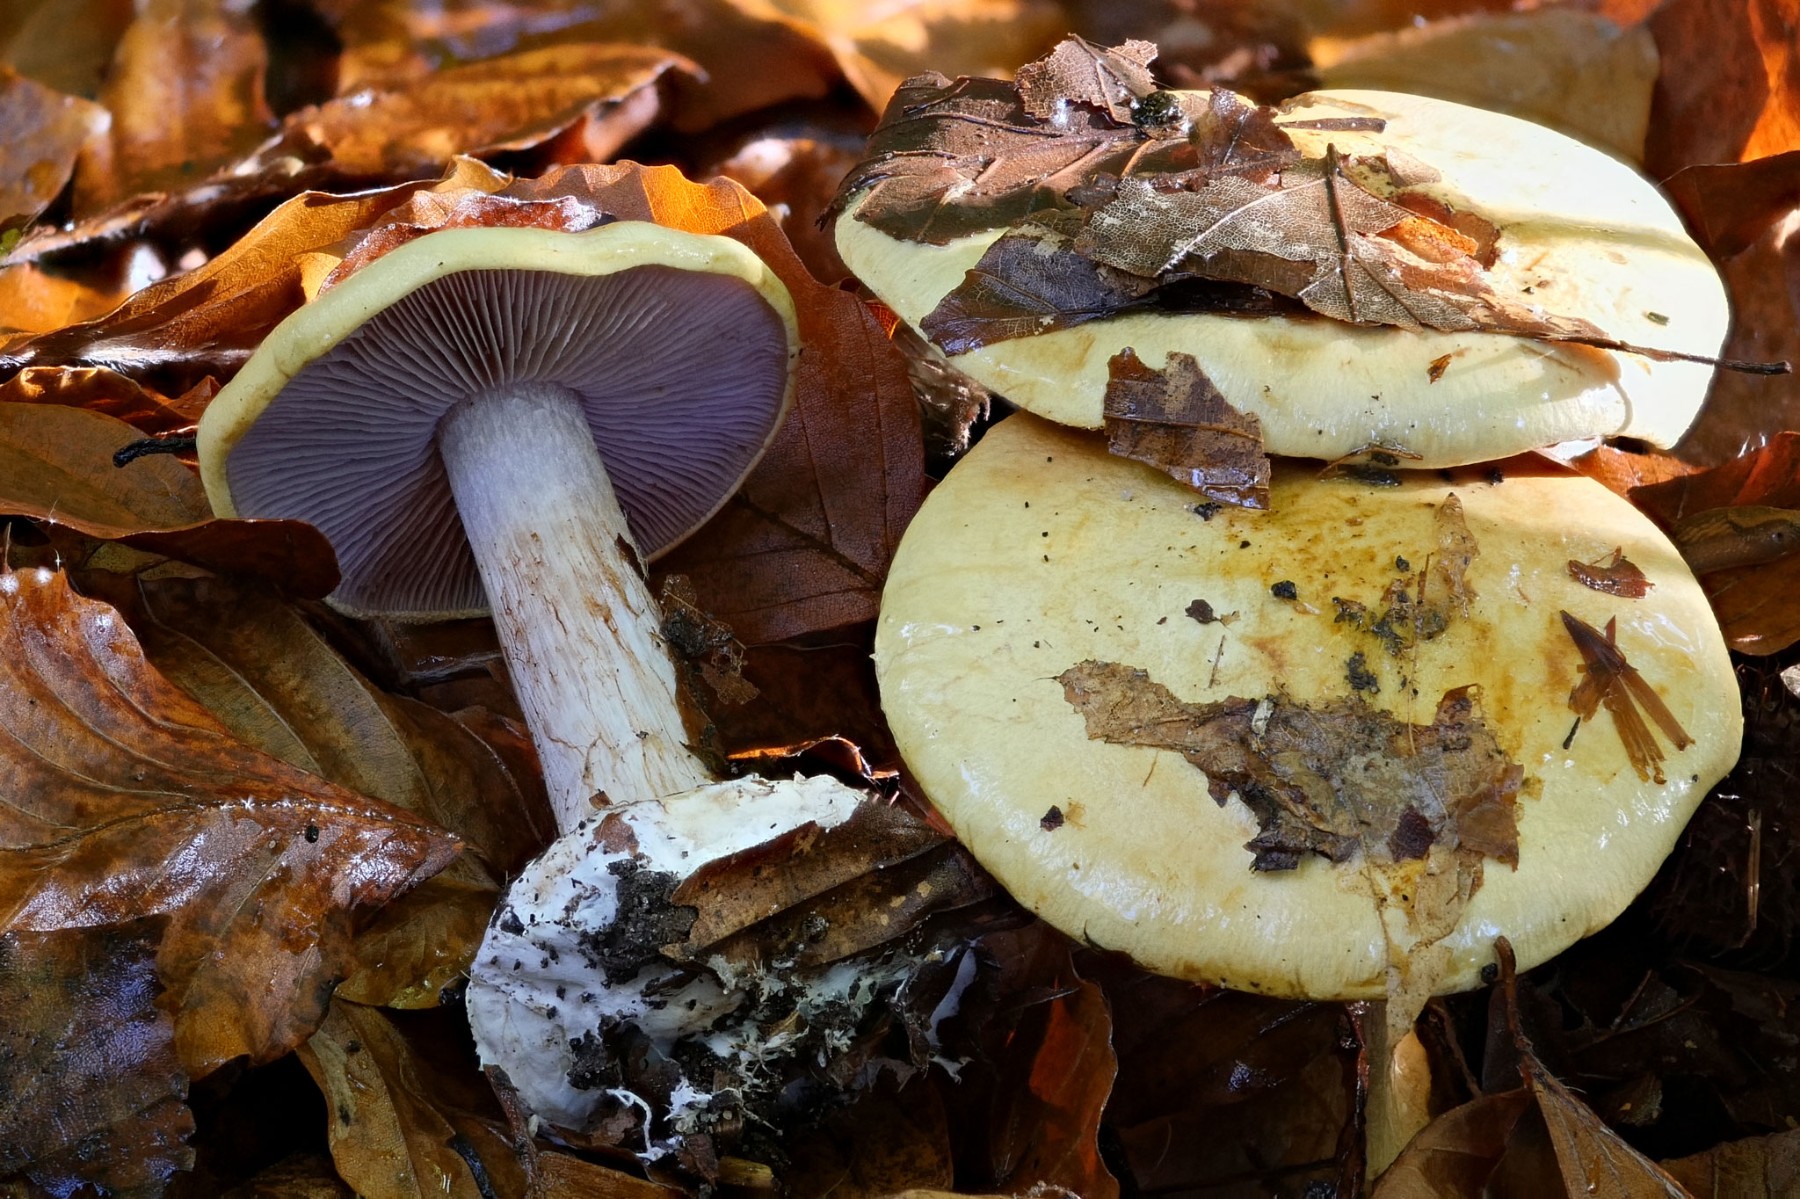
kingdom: Fungi
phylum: Basidiomycota
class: Agaricomycetes
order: Agaricales
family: Cortinariaceae
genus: Calonarius
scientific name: Calonarius callochrous
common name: lillabladet slørhat
